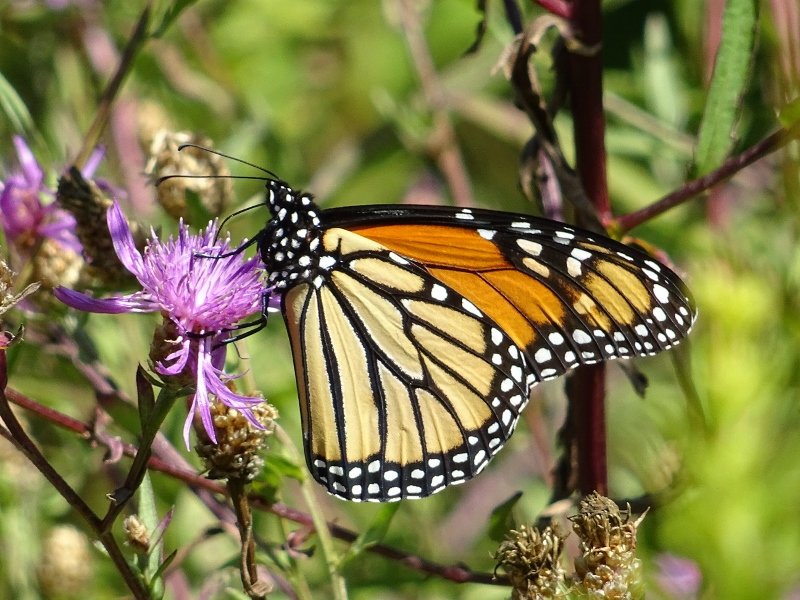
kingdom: Animalia
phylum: Arthropoda
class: Insecta
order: Lepidoptera
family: Nymphalidae
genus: Danaus
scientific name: Danaus plexippus
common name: Monarch
